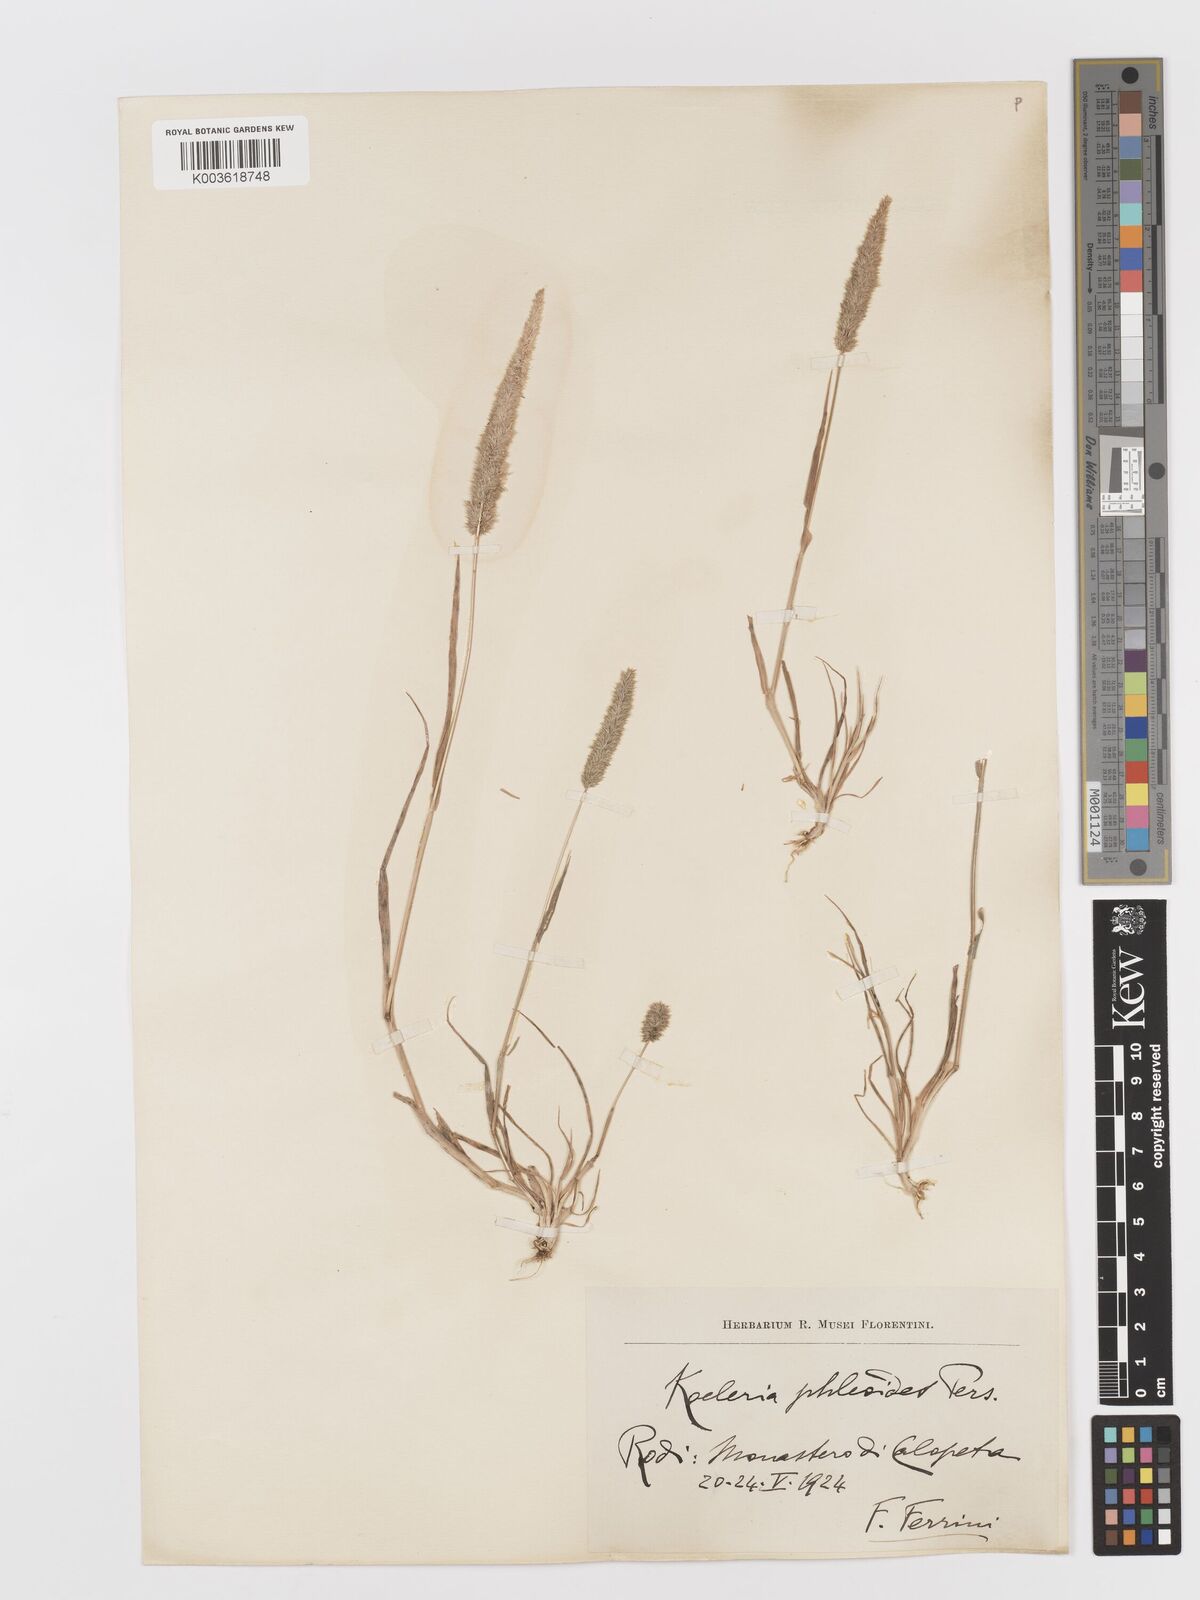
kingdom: Plantae
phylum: Tracheophyta
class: Liliopsida
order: Poales
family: Poaceae
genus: Rostraria
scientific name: Rostraria cristata
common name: Mediterranean hair-grass
